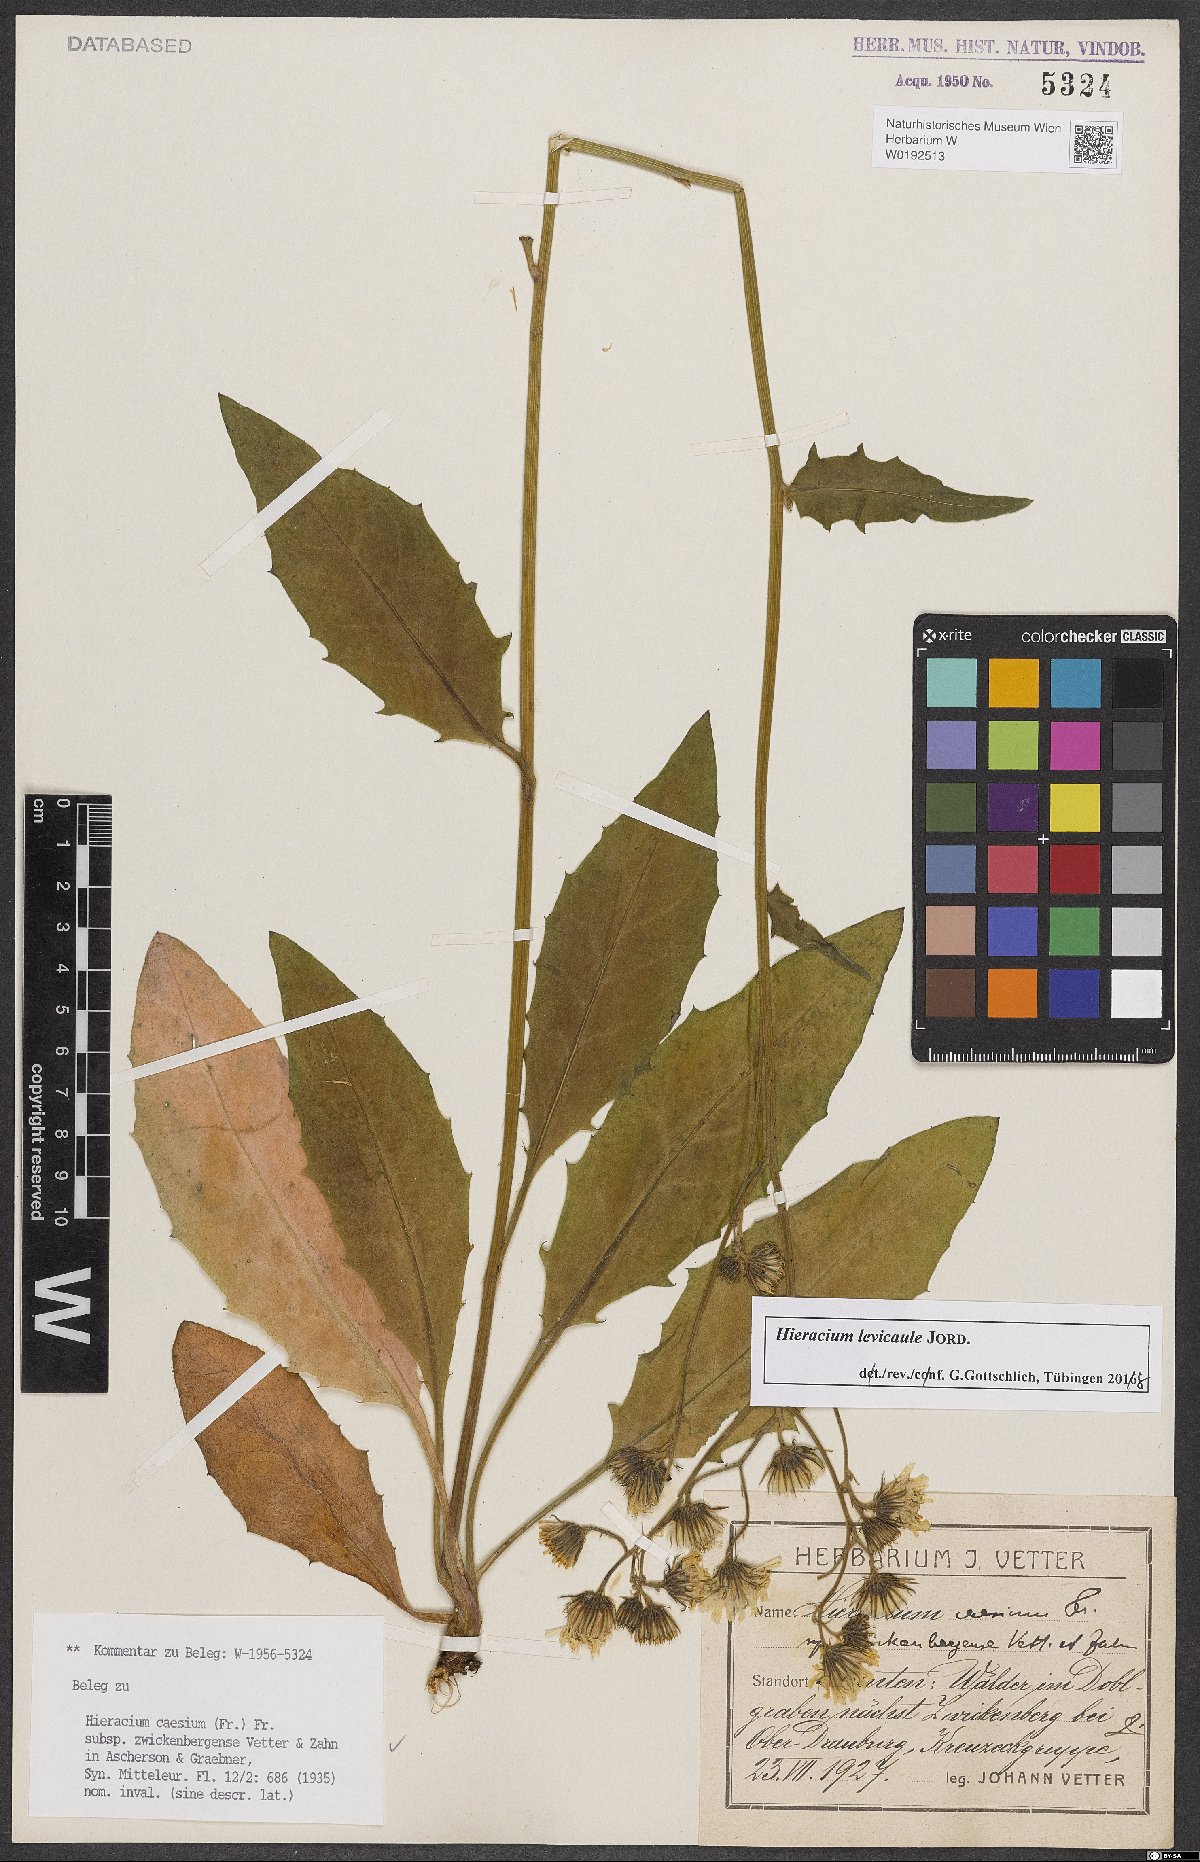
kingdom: Plantae
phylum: Tracheophyta
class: Magnoliopsida
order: Asterales
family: Asteraceae
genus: Hieracium
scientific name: Hieracium caesium
